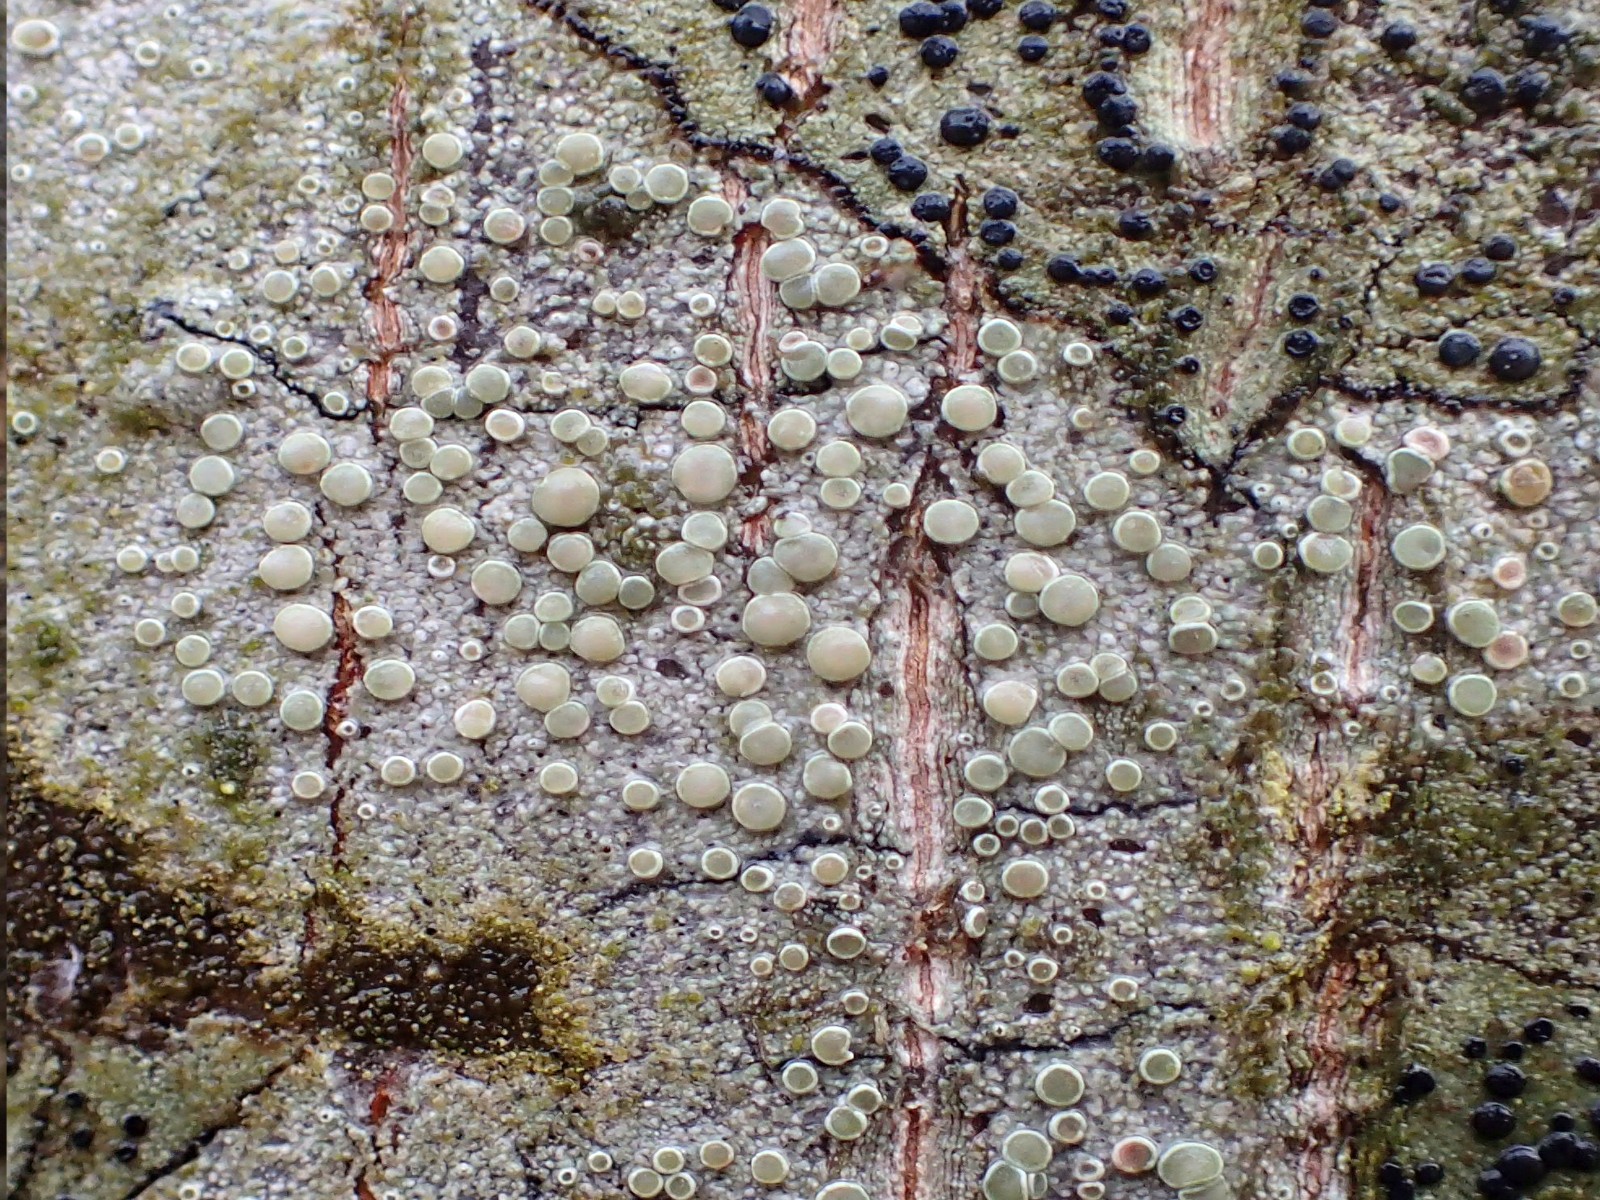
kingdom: Fungi
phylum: Ascomycota
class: Lecanoromycetes
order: Lecanorales
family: Lecanoraceae
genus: Lecanora
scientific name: Lecanora chlarotera
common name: brun kantskivelav
